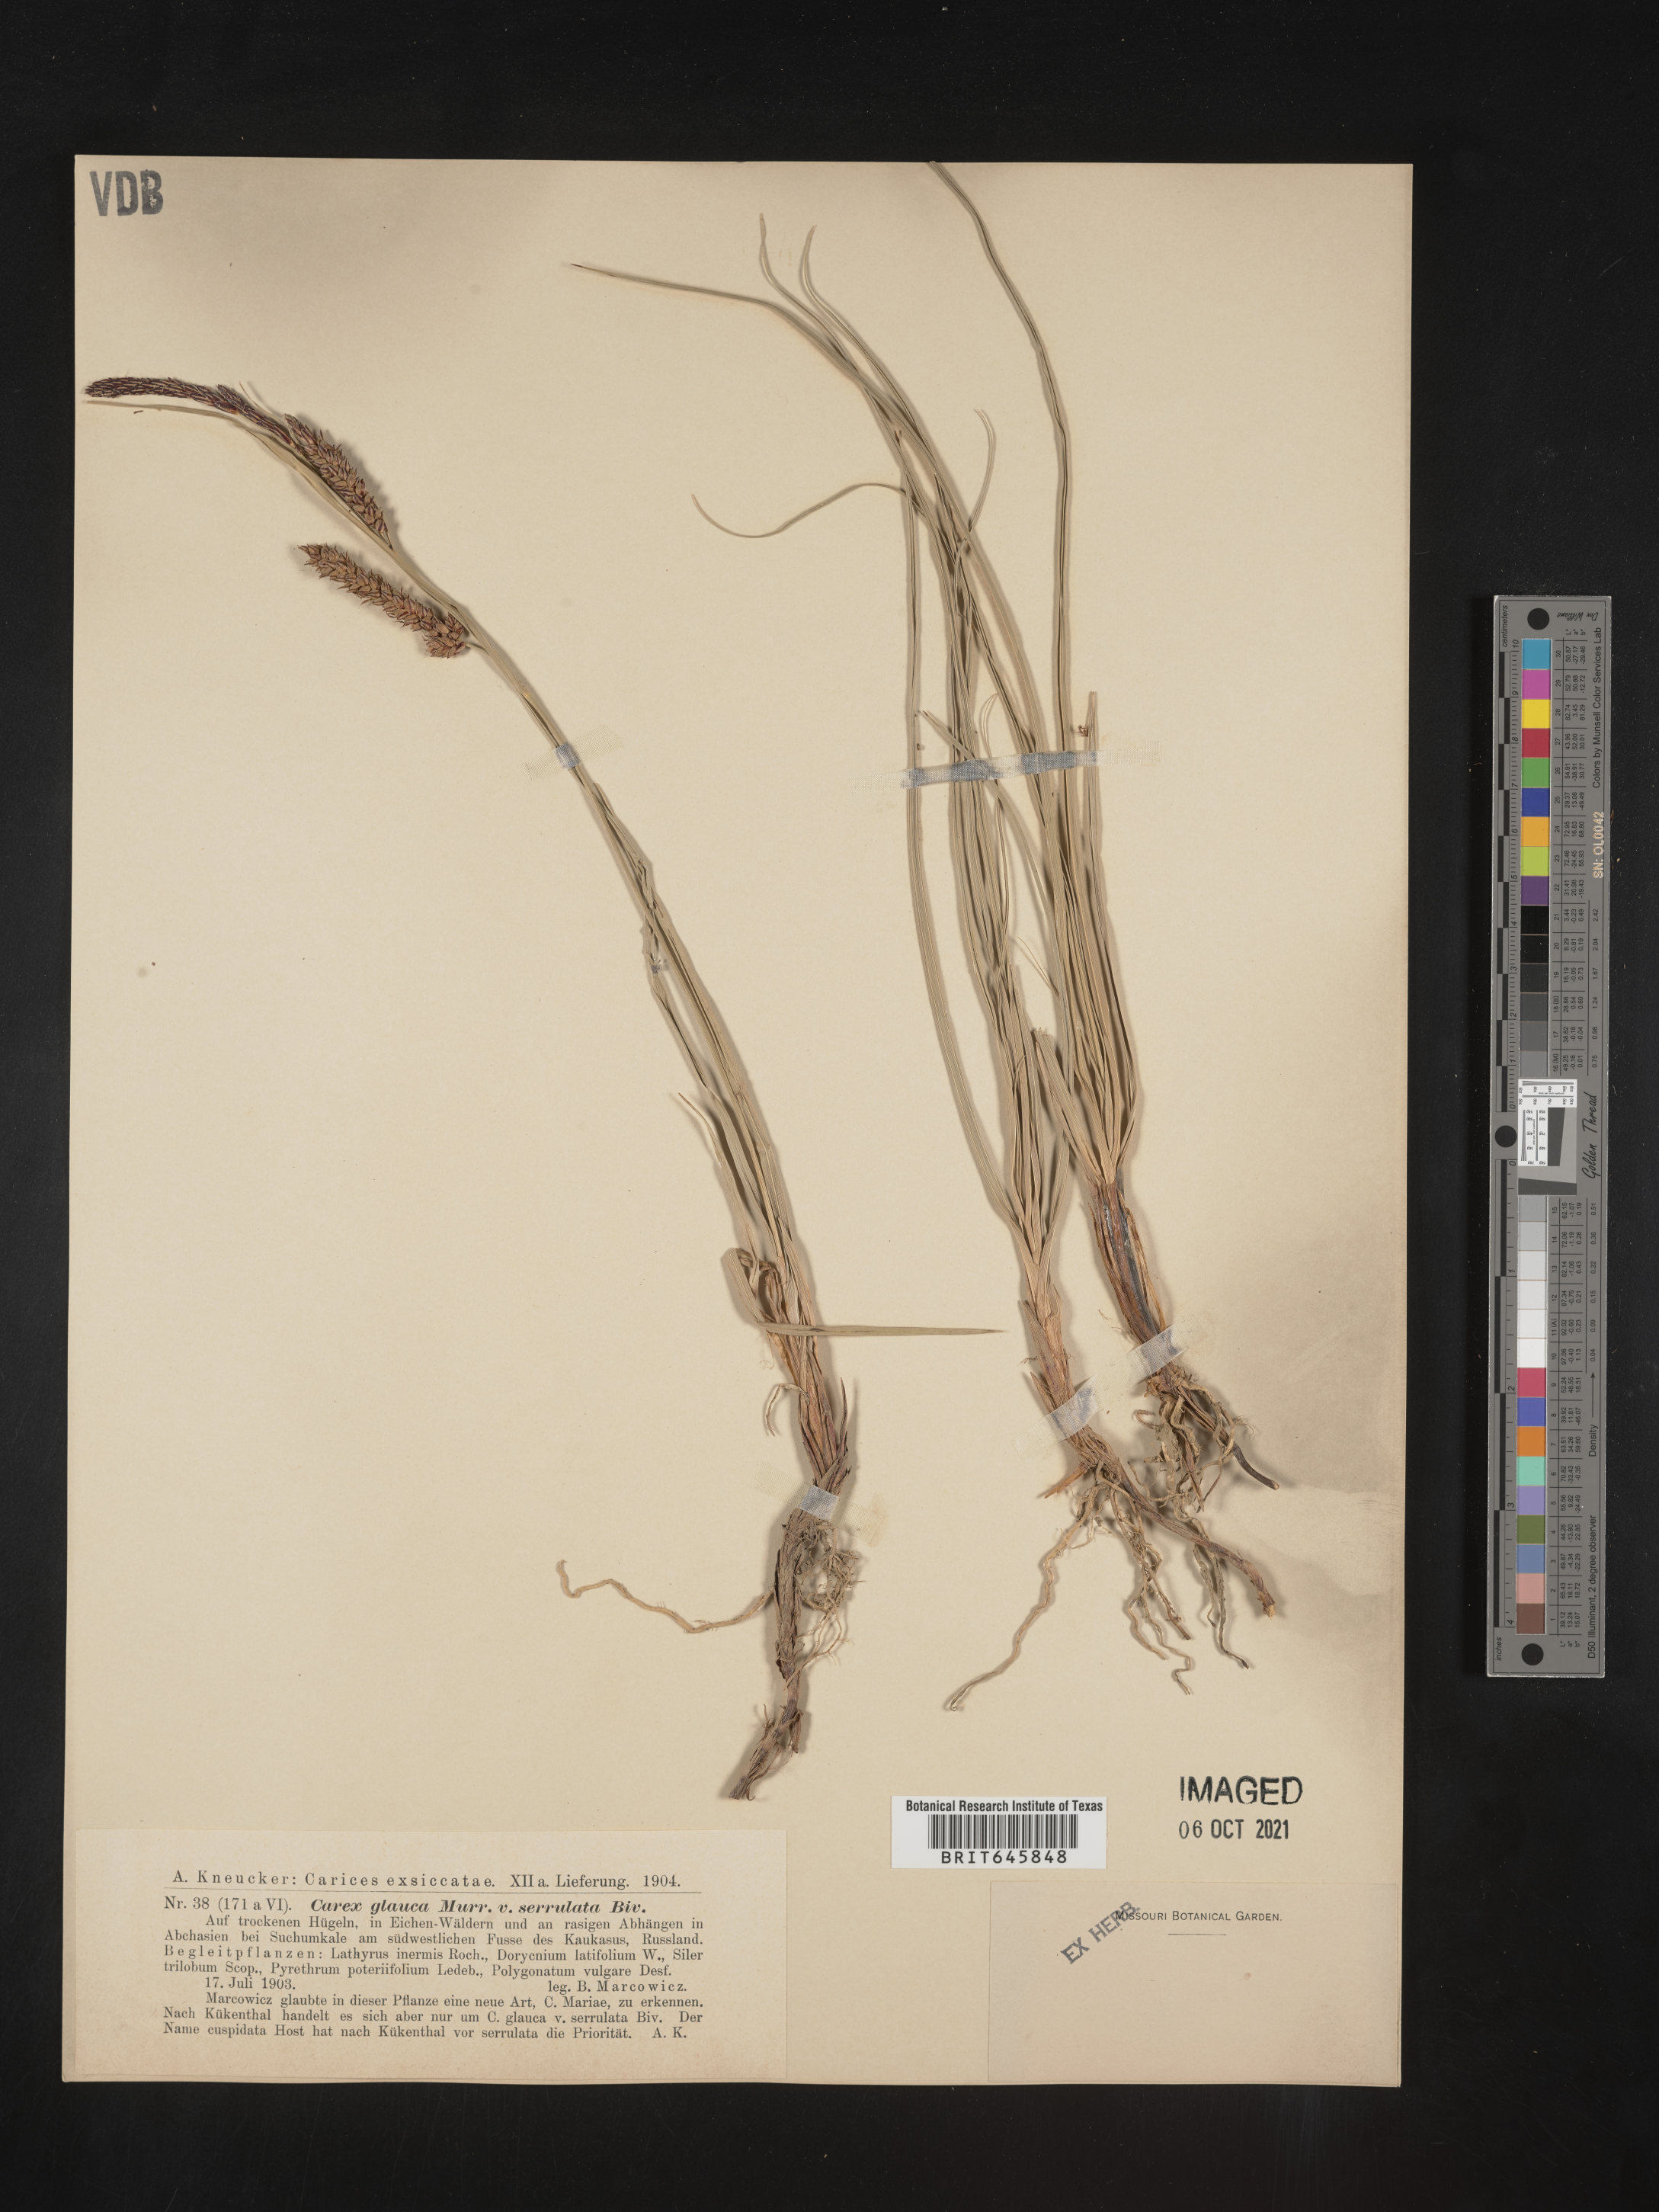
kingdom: Plantae
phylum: Tracheophyta
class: Liliopsida
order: Poales
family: Cyperaceae
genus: Carex
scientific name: Carex
